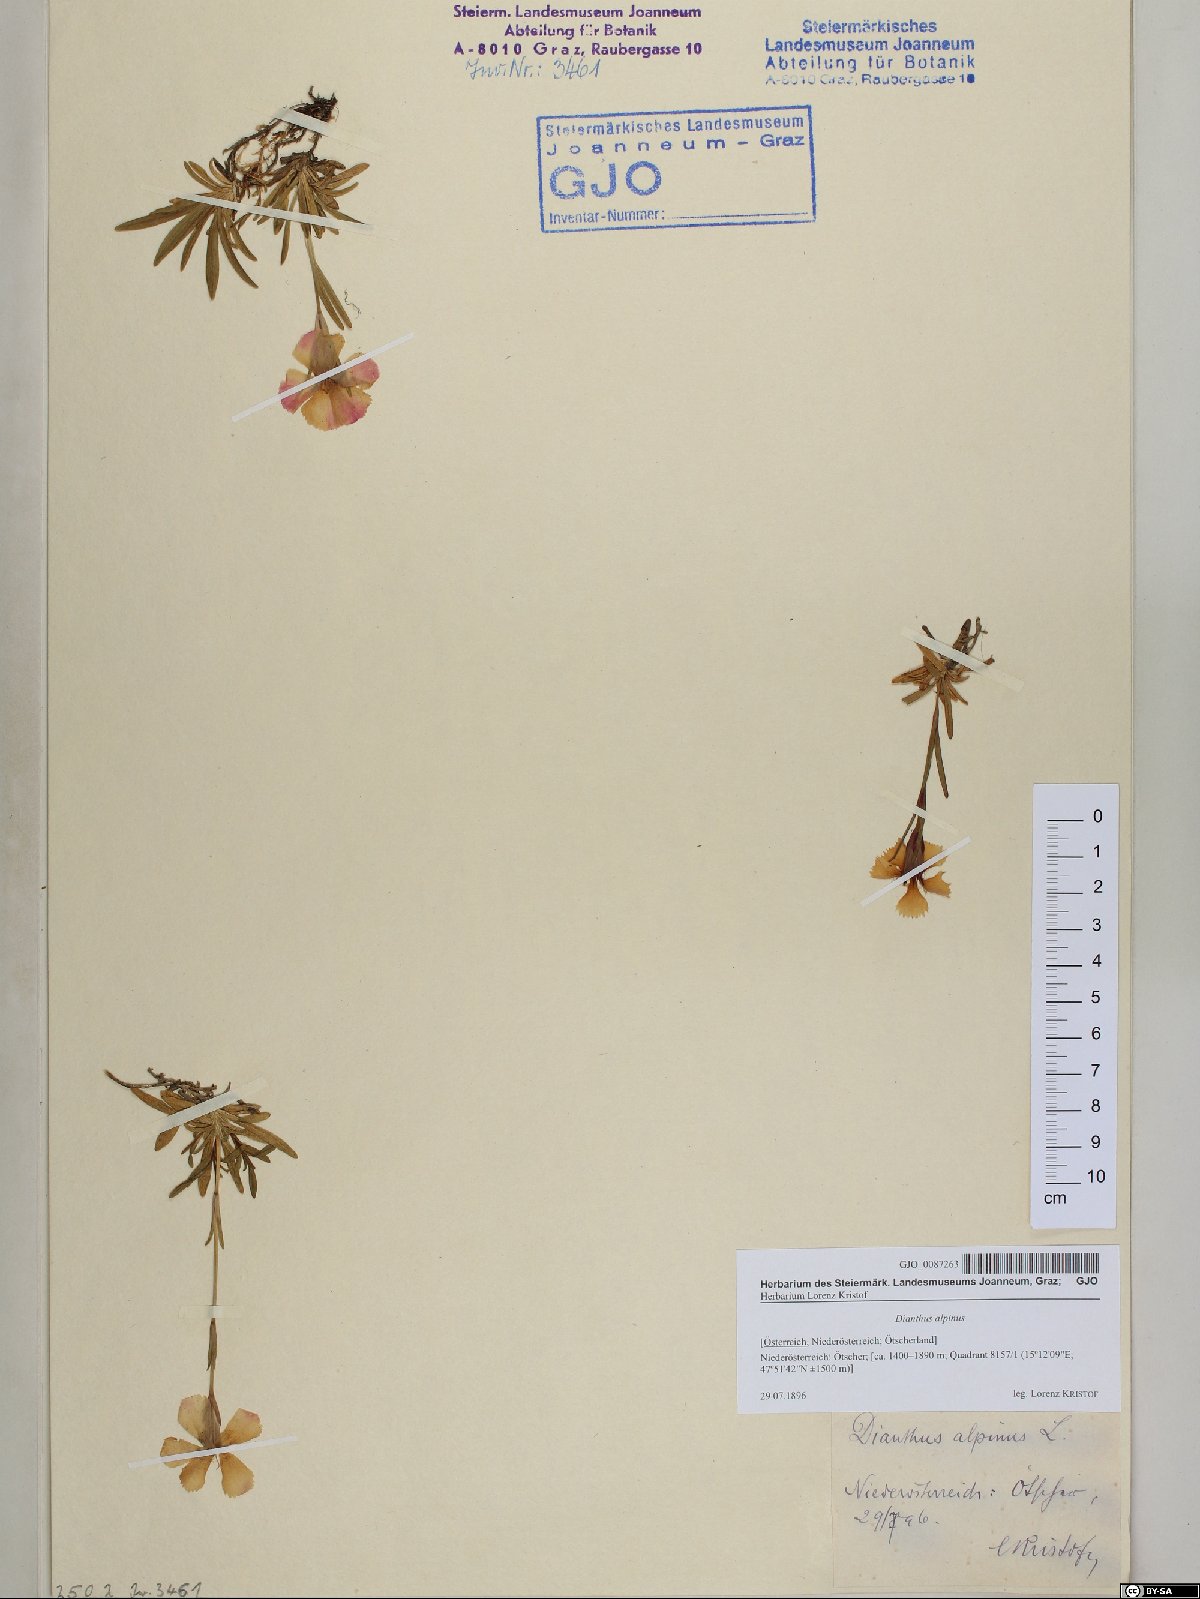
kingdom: Plantae
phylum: Tracheophyta
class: Magnoliopsida
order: Caryophyllales
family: Caryophyllaceae
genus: Dianthus
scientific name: Dianthus alpinus
